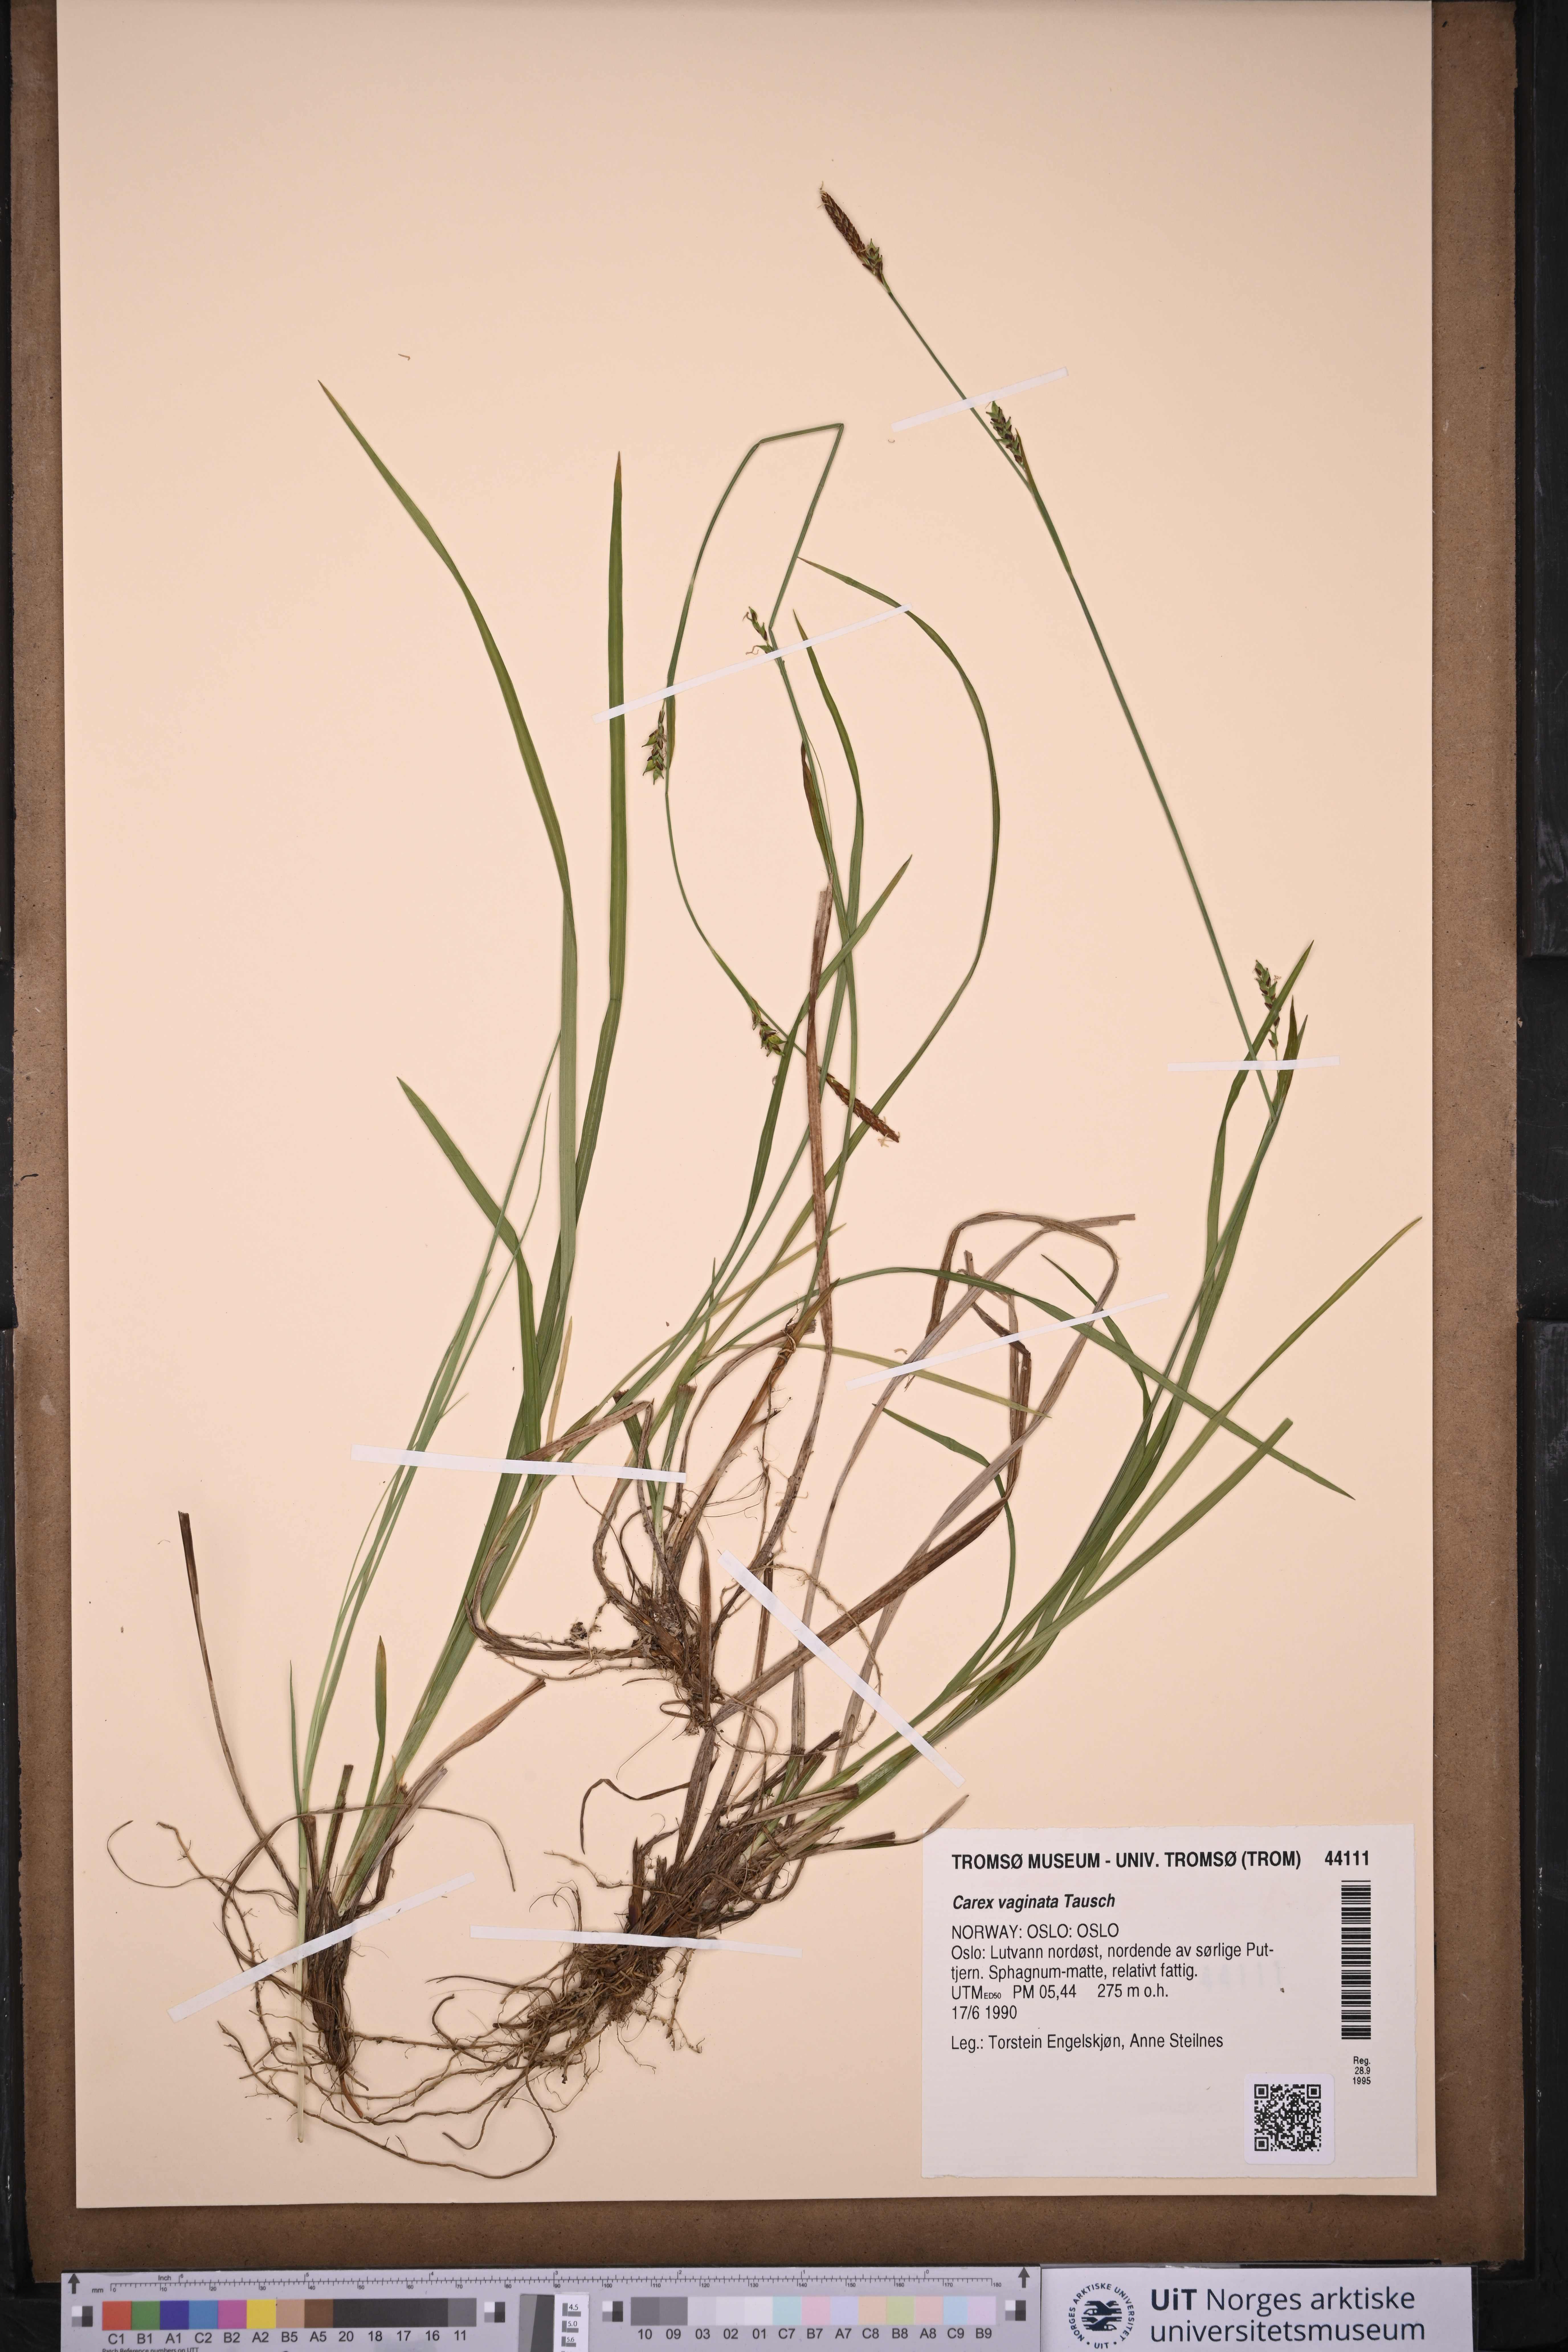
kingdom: Plantae
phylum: Tracheophyta
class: Liliopsida
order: Poales
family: Cyperaceae
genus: Carex
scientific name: Carex vaginata
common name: Sheathed sedge
